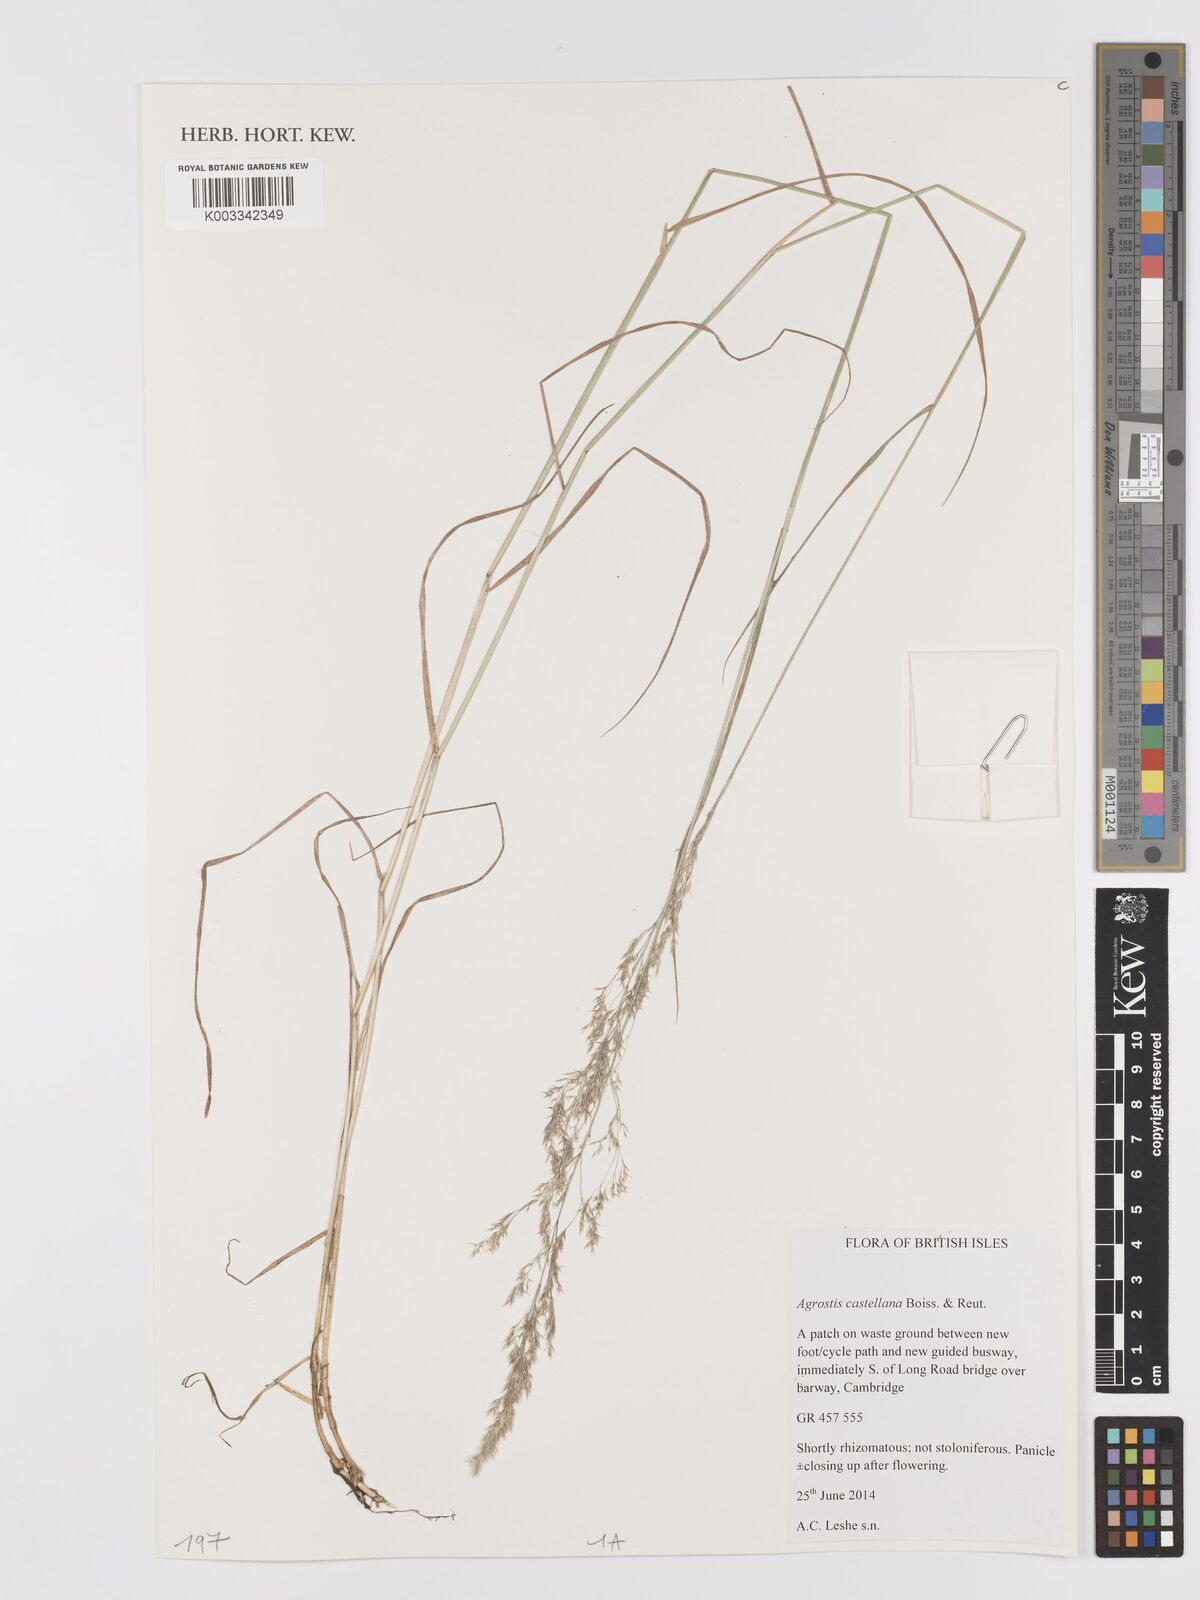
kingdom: Plantae
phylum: Tracheophyta
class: Liliopsida
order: Poales
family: Poaceae
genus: Agrostis
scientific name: Agrostis castellana
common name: Highland bent
